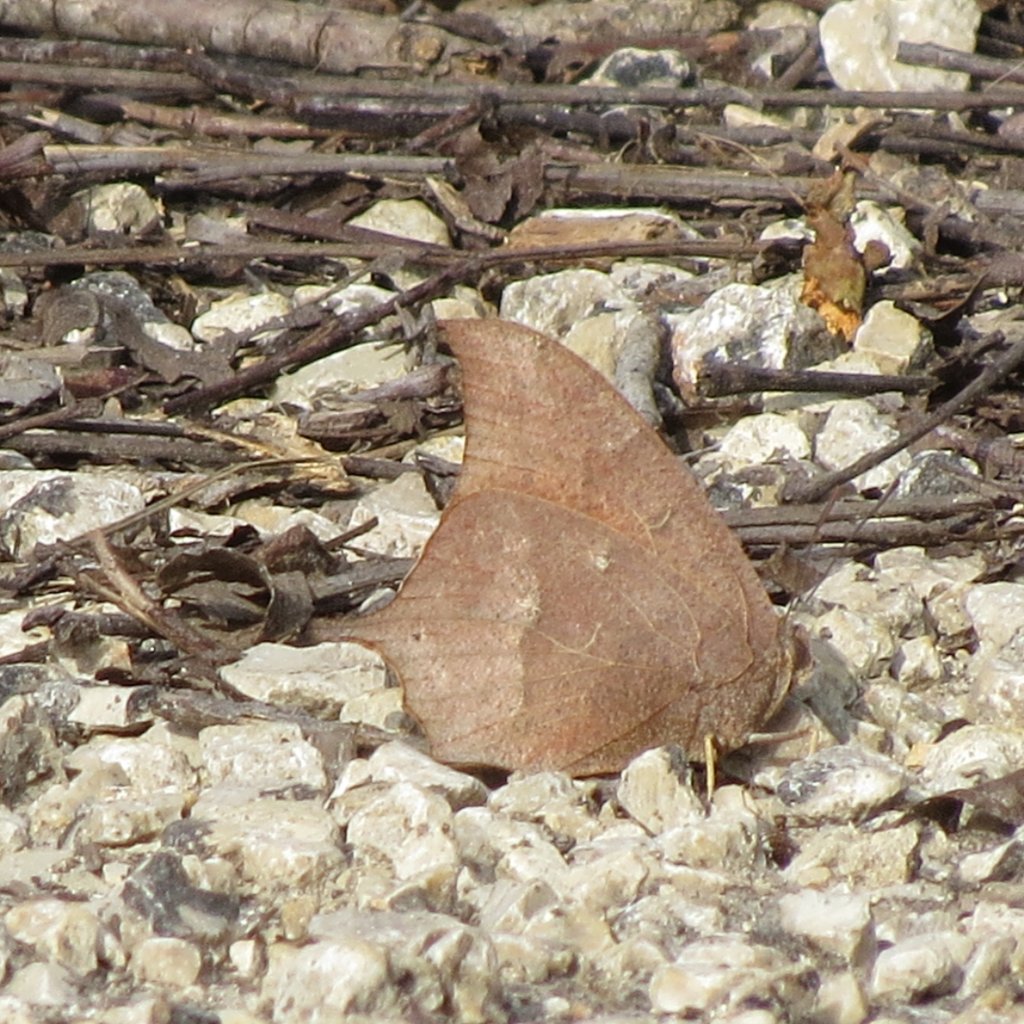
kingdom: Animalia
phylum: Arthropoda
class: Insecta
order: Lepidoptera
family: Nymphalidae
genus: Anaea
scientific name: Anaea andria
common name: Goatweed Leafwing
